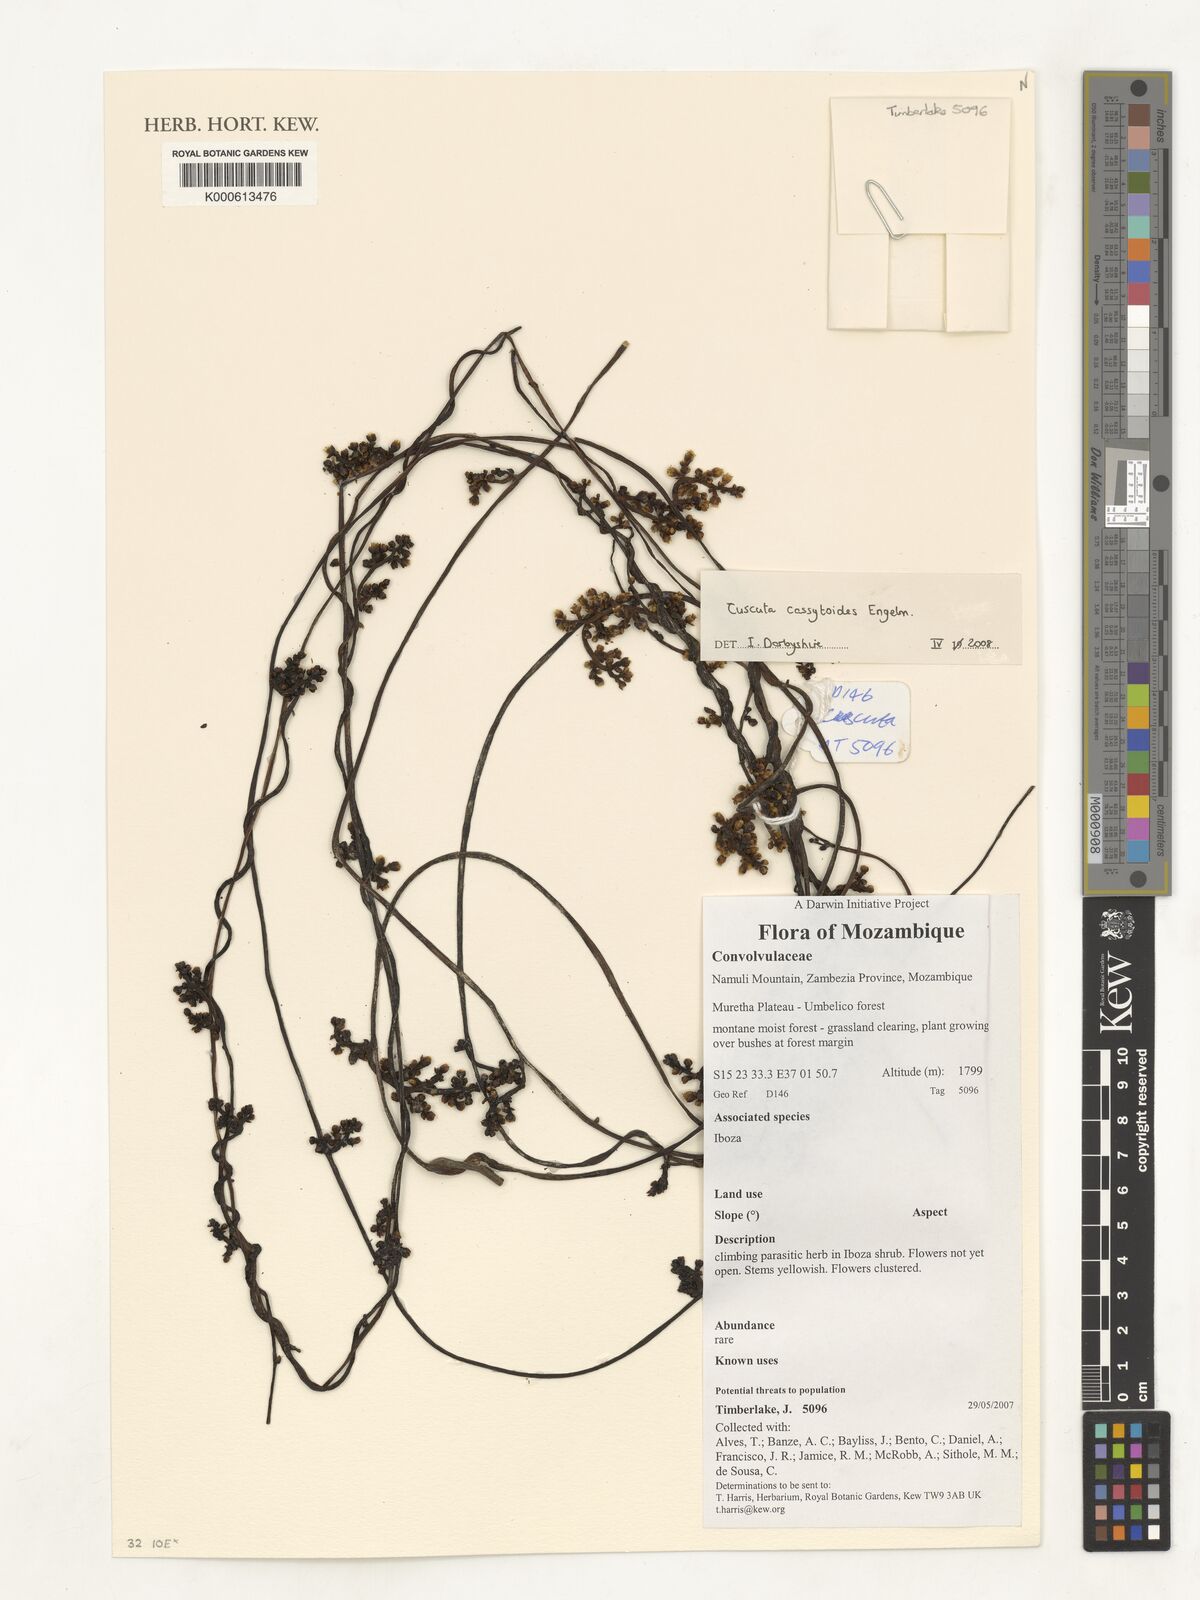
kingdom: Plantae
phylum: Tracheophyta
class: Magnoliopsida
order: Solanales
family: Convolvulaceae
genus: Cuscuta
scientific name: Cuscuta cassytoides
